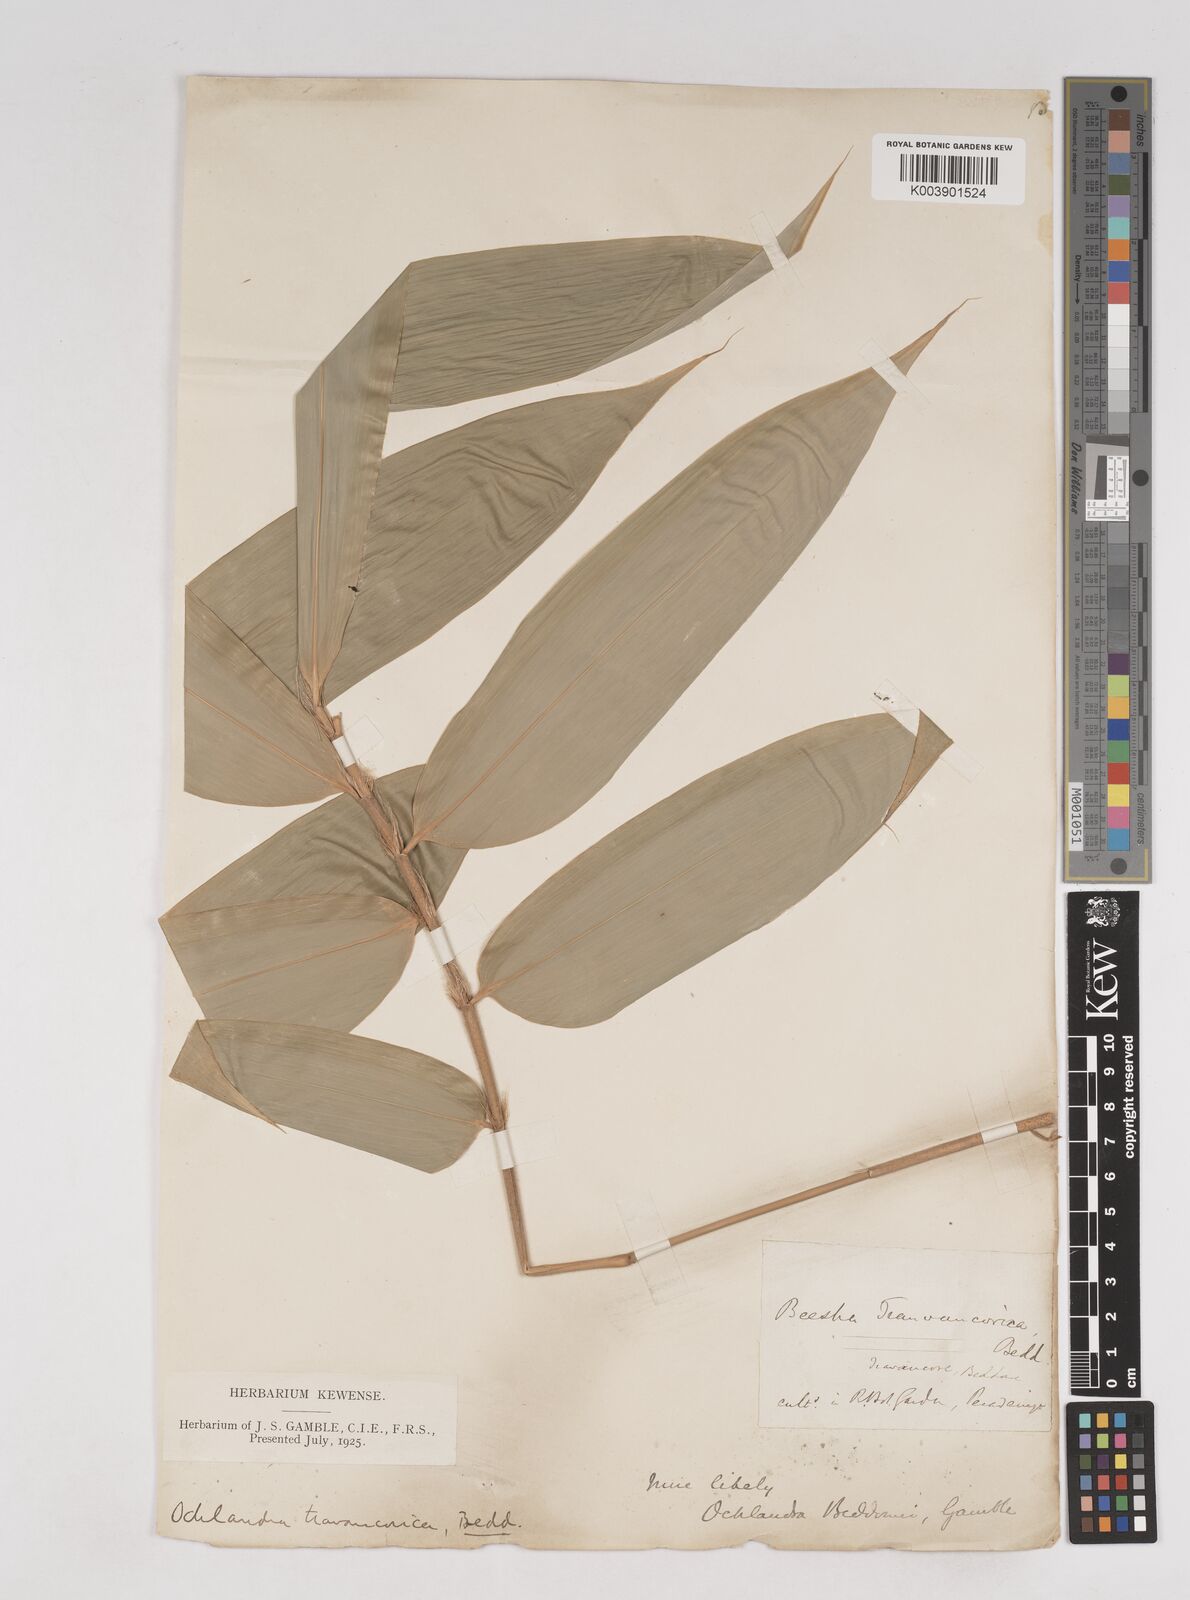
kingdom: Plantae
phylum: Tracheophyta
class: Liliopsida
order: Poales
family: Poaceae
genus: Ochlandra
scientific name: Ochlandra beddomei
